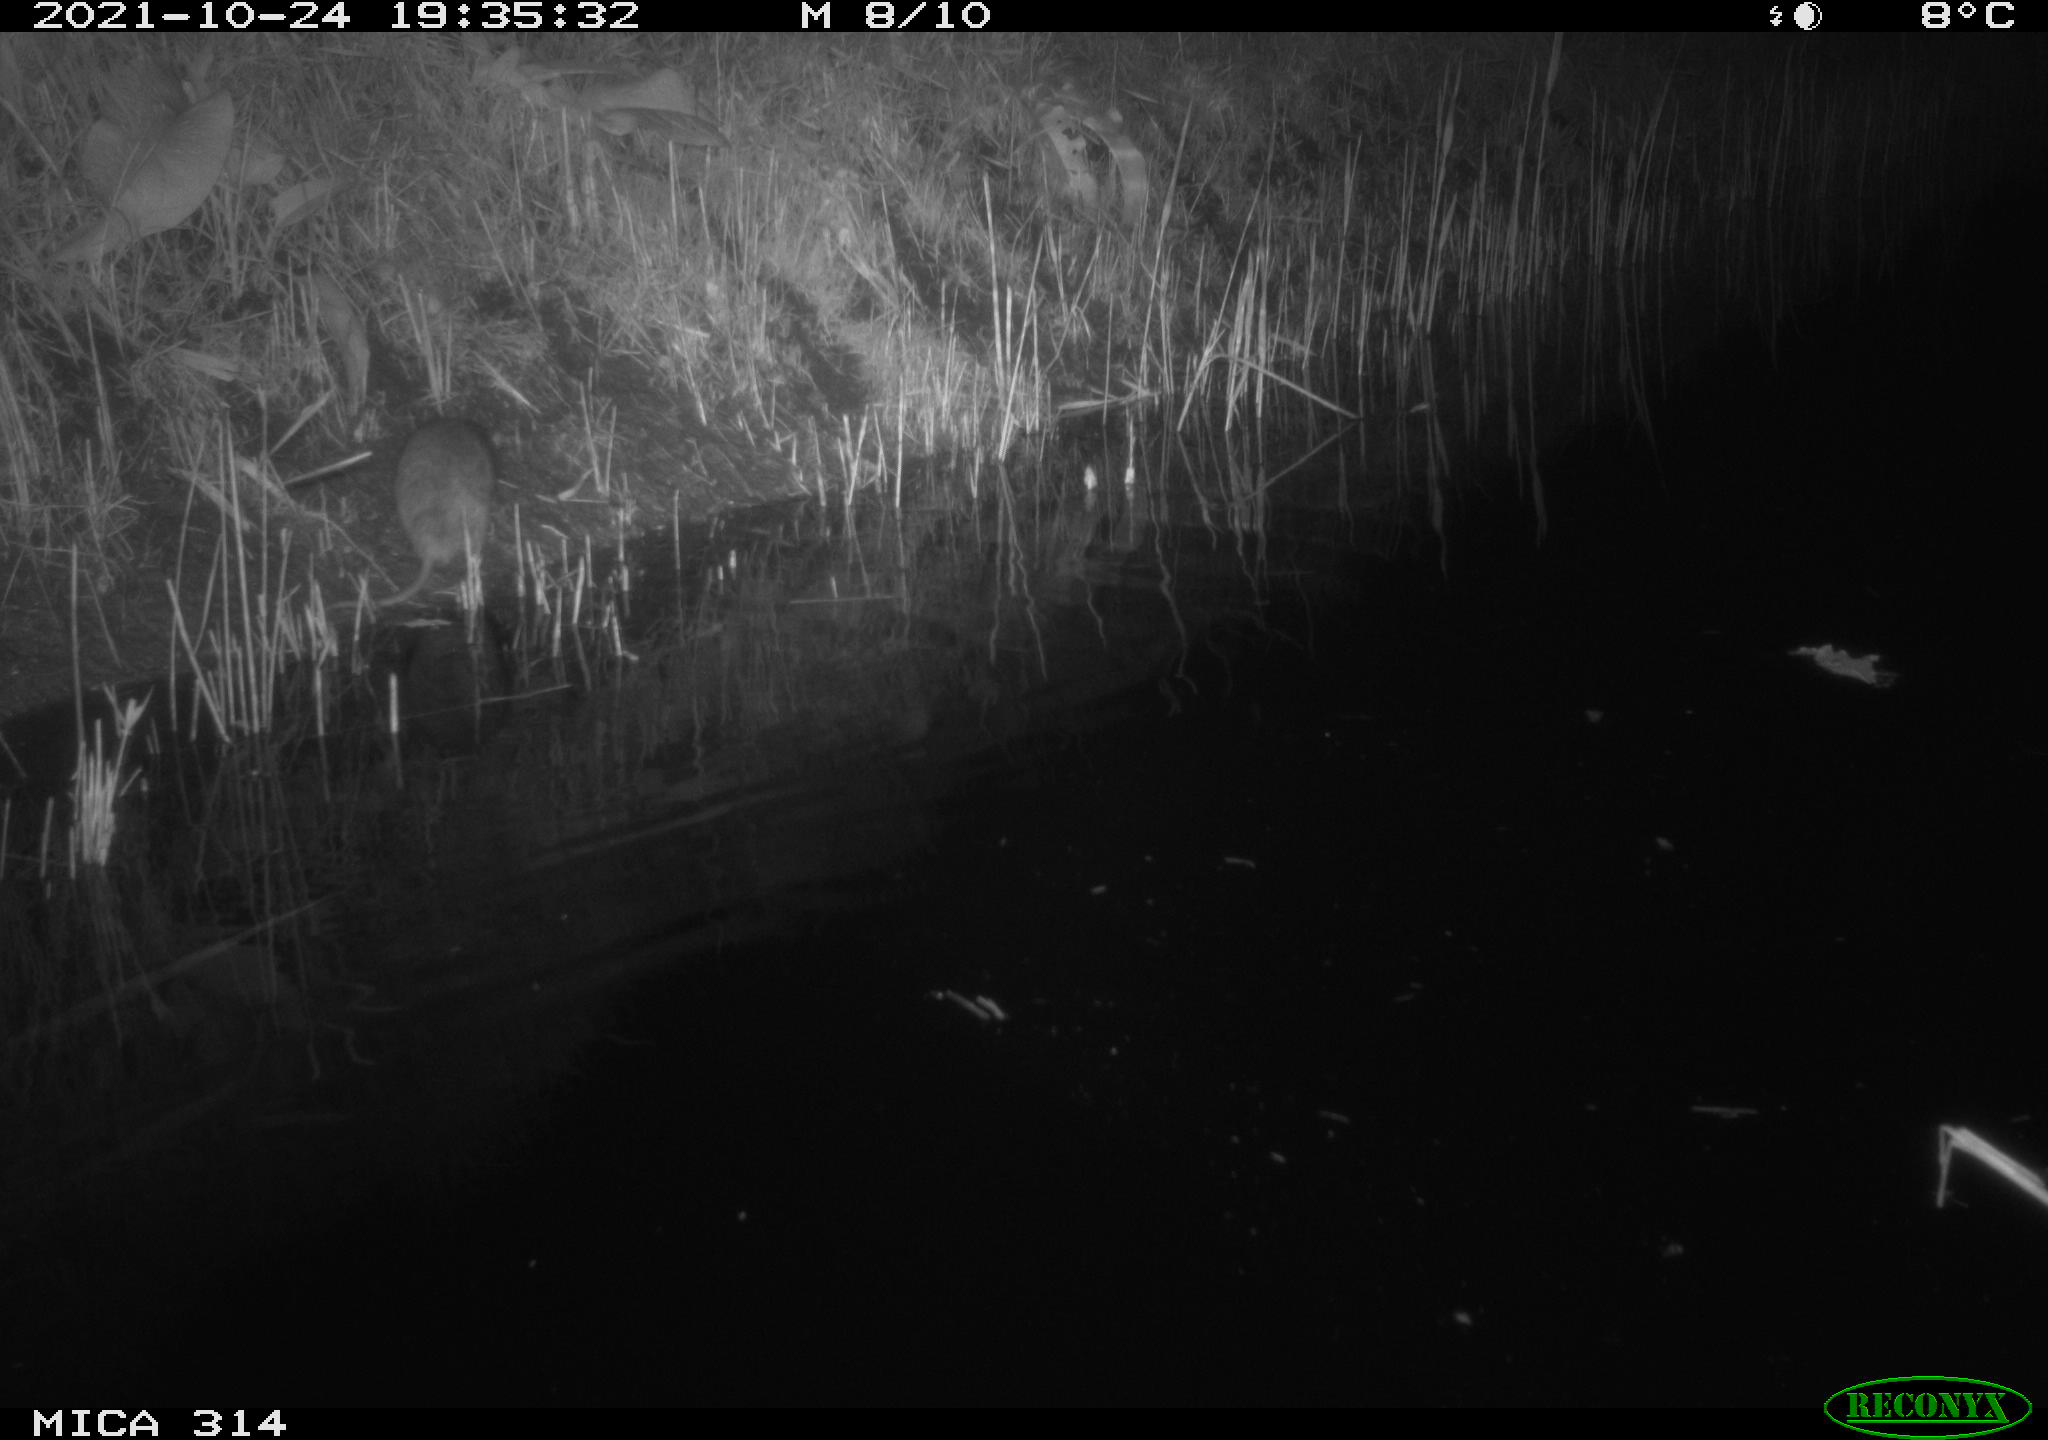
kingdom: Animalia
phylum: Chordata
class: Mammalia
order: Rodentia
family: Muridae
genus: Rattus
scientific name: Rattus norvegicus
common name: Brown rat
